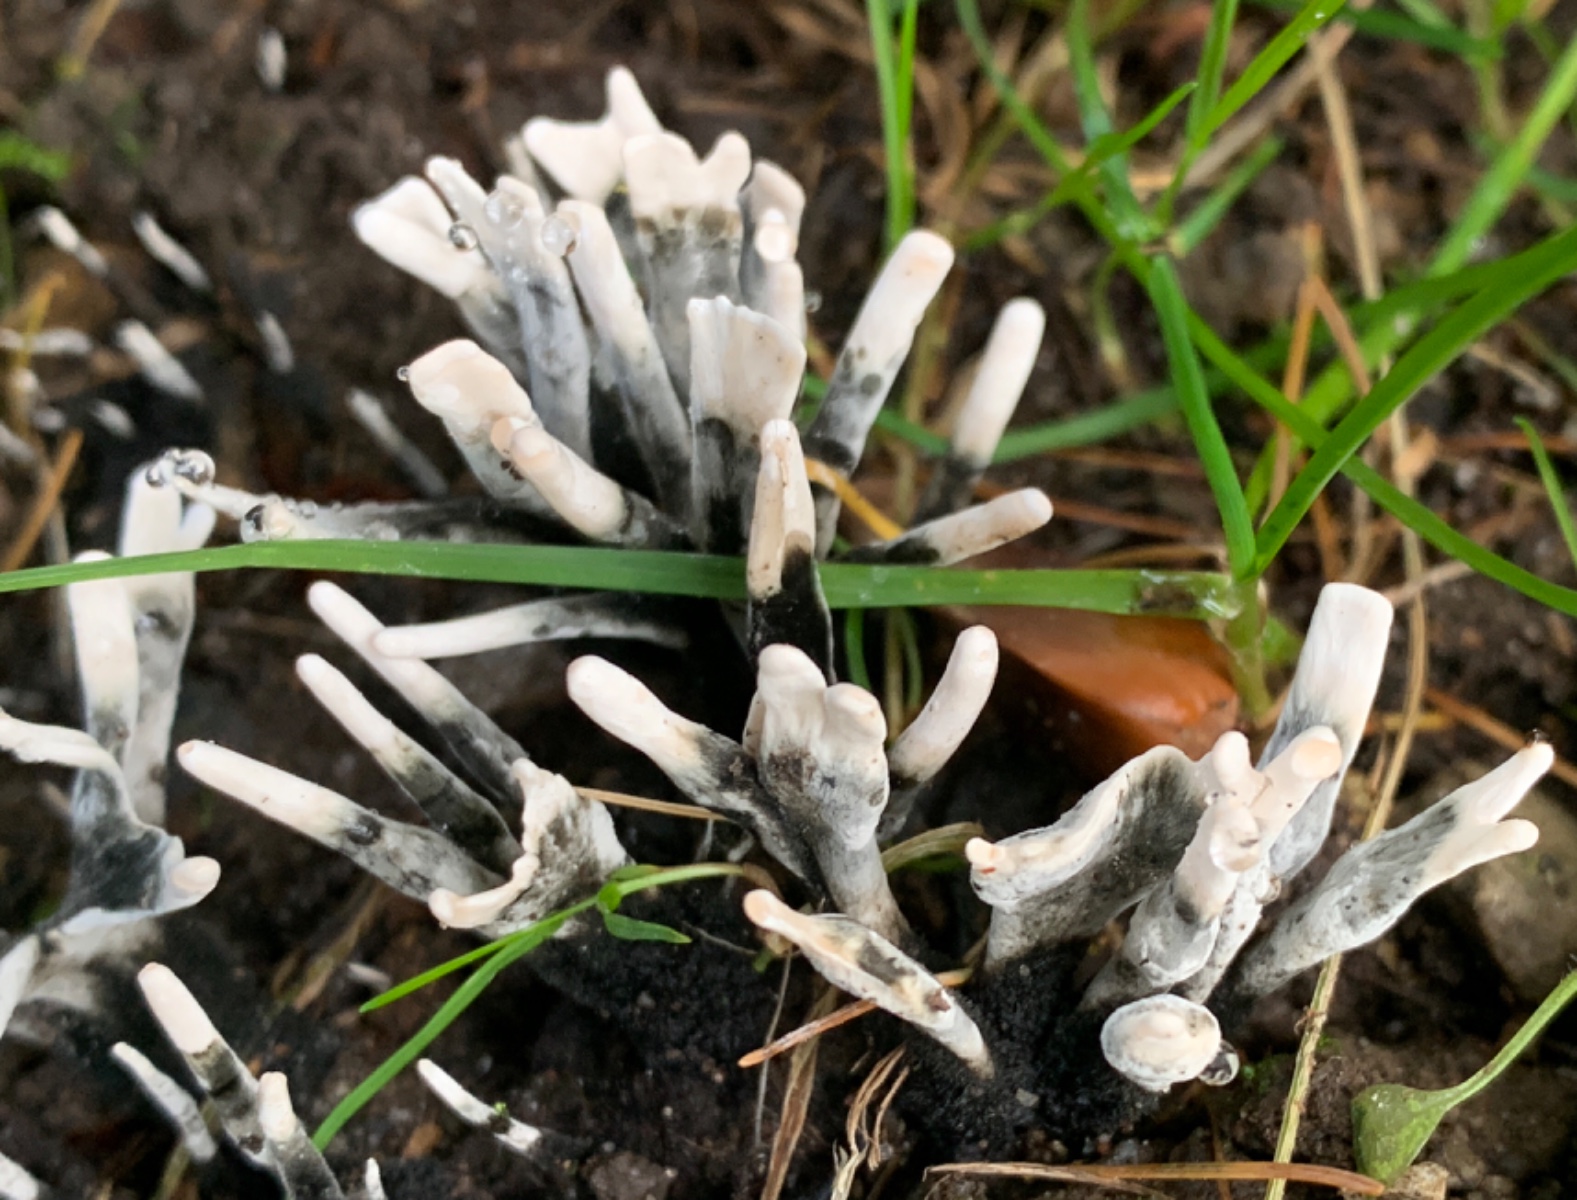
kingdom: Fungi
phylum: Ascomycota
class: Sordariomycetes
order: Xylariales
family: Xylariaceae
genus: Xylaria
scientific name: Xylaria hypoxylon
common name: grenet stødsvamp
